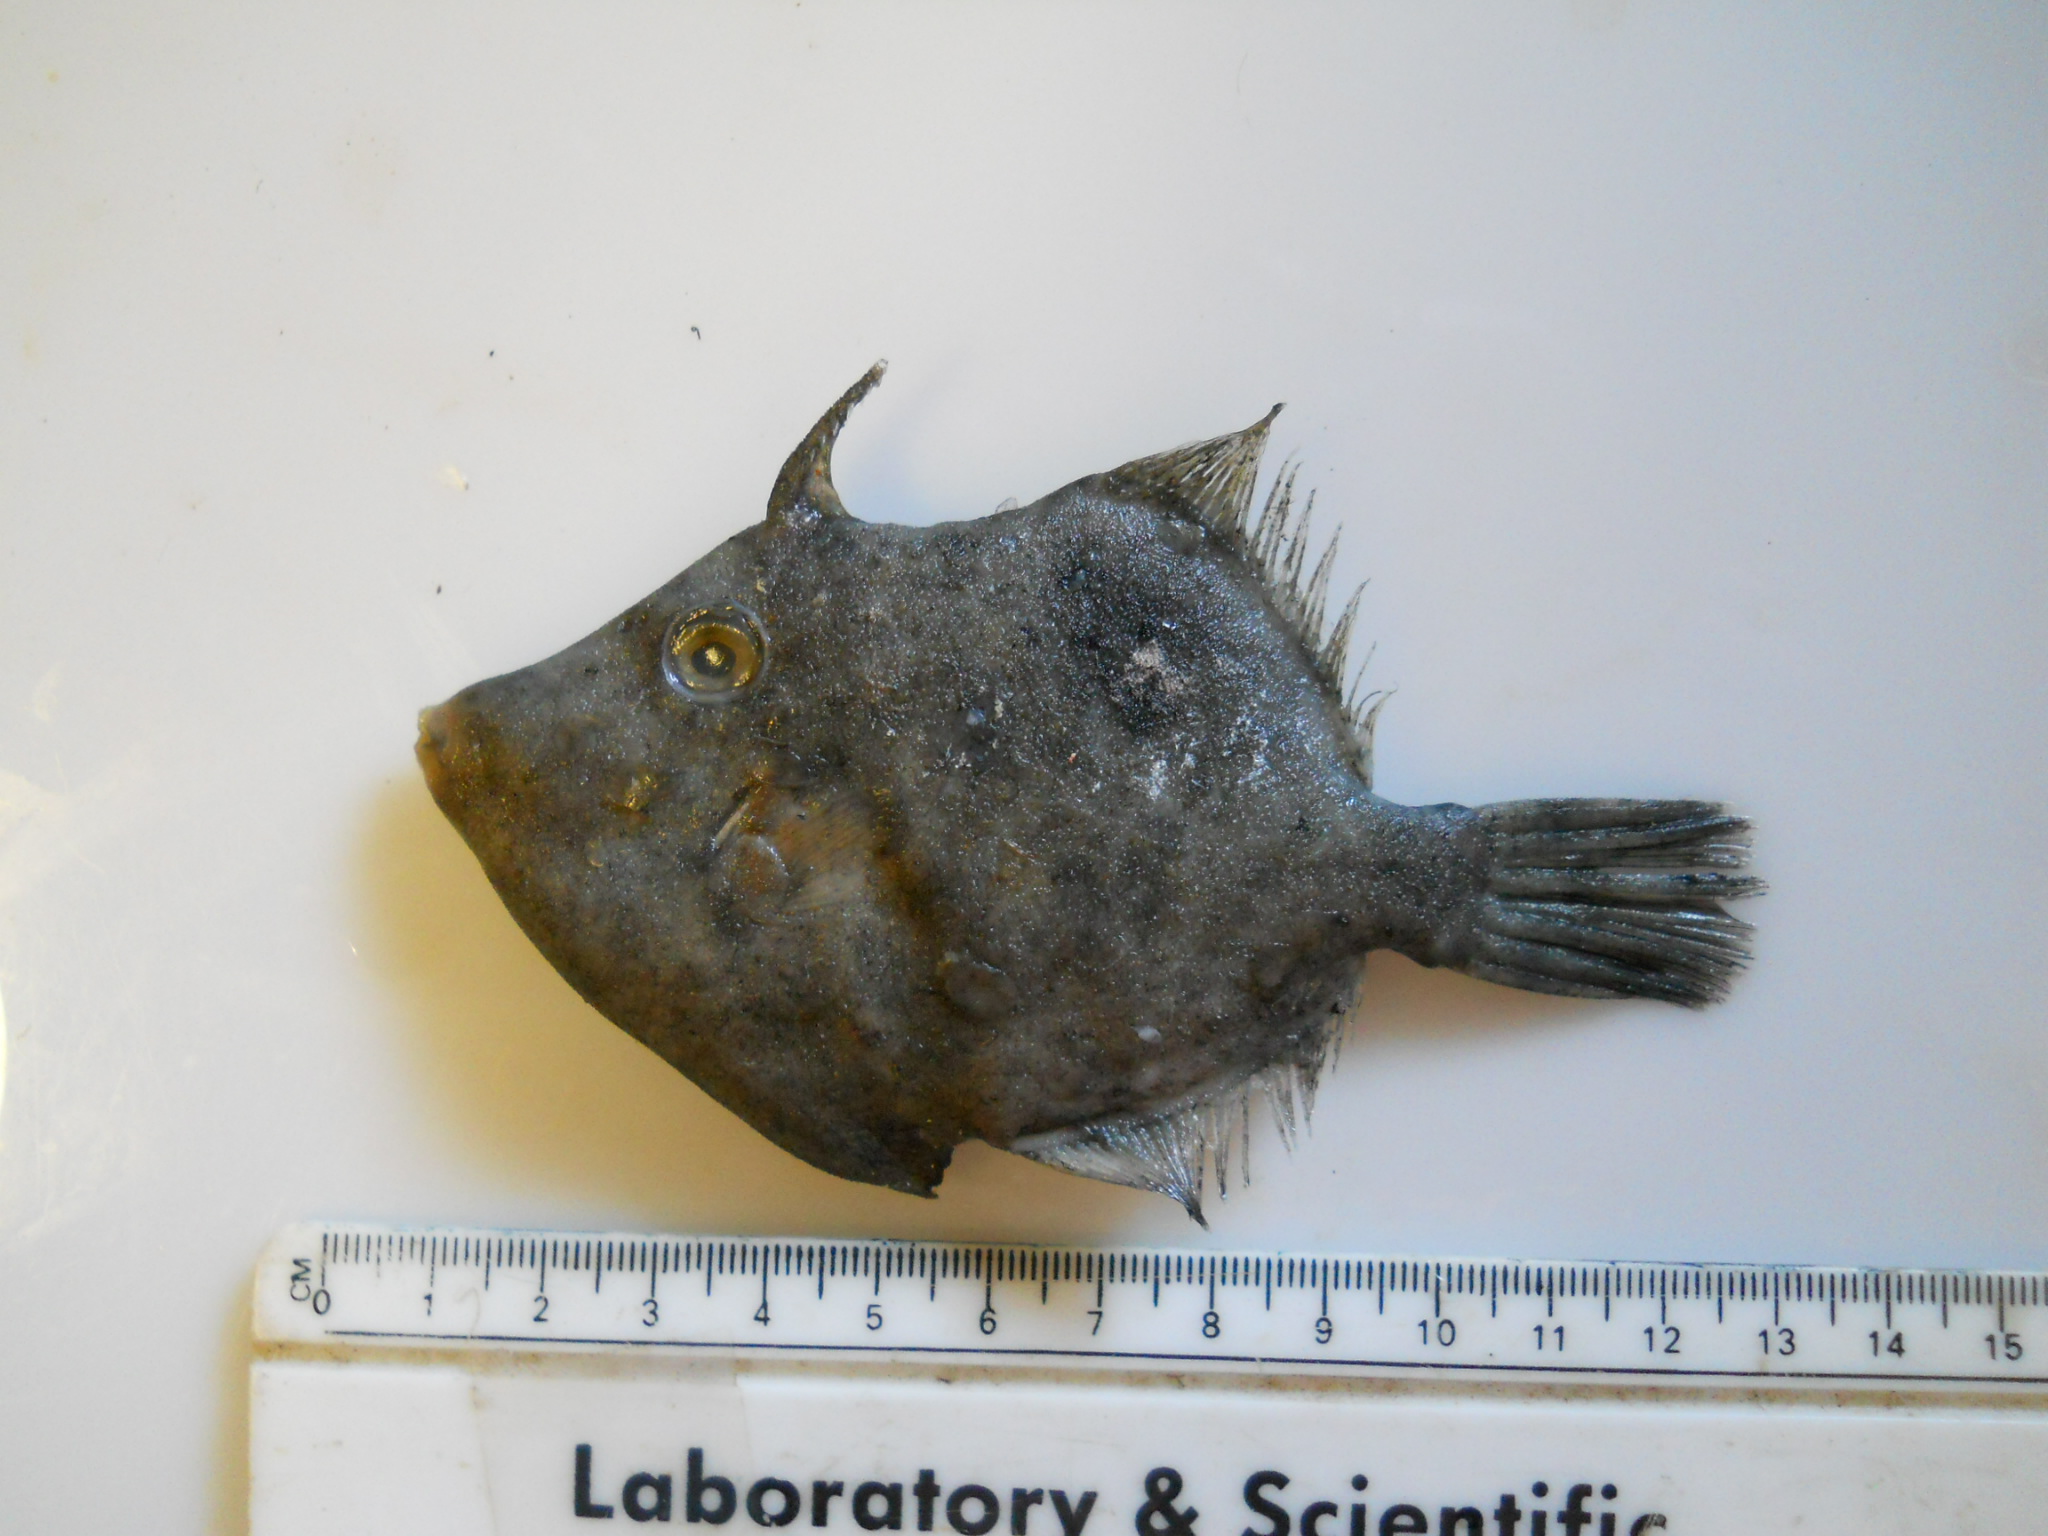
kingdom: Animalia
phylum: Chordata
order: Tetraodontiformes
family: Monacanthidae
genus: Stephanolepis
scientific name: Stephanolepis auratus
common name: Porky
